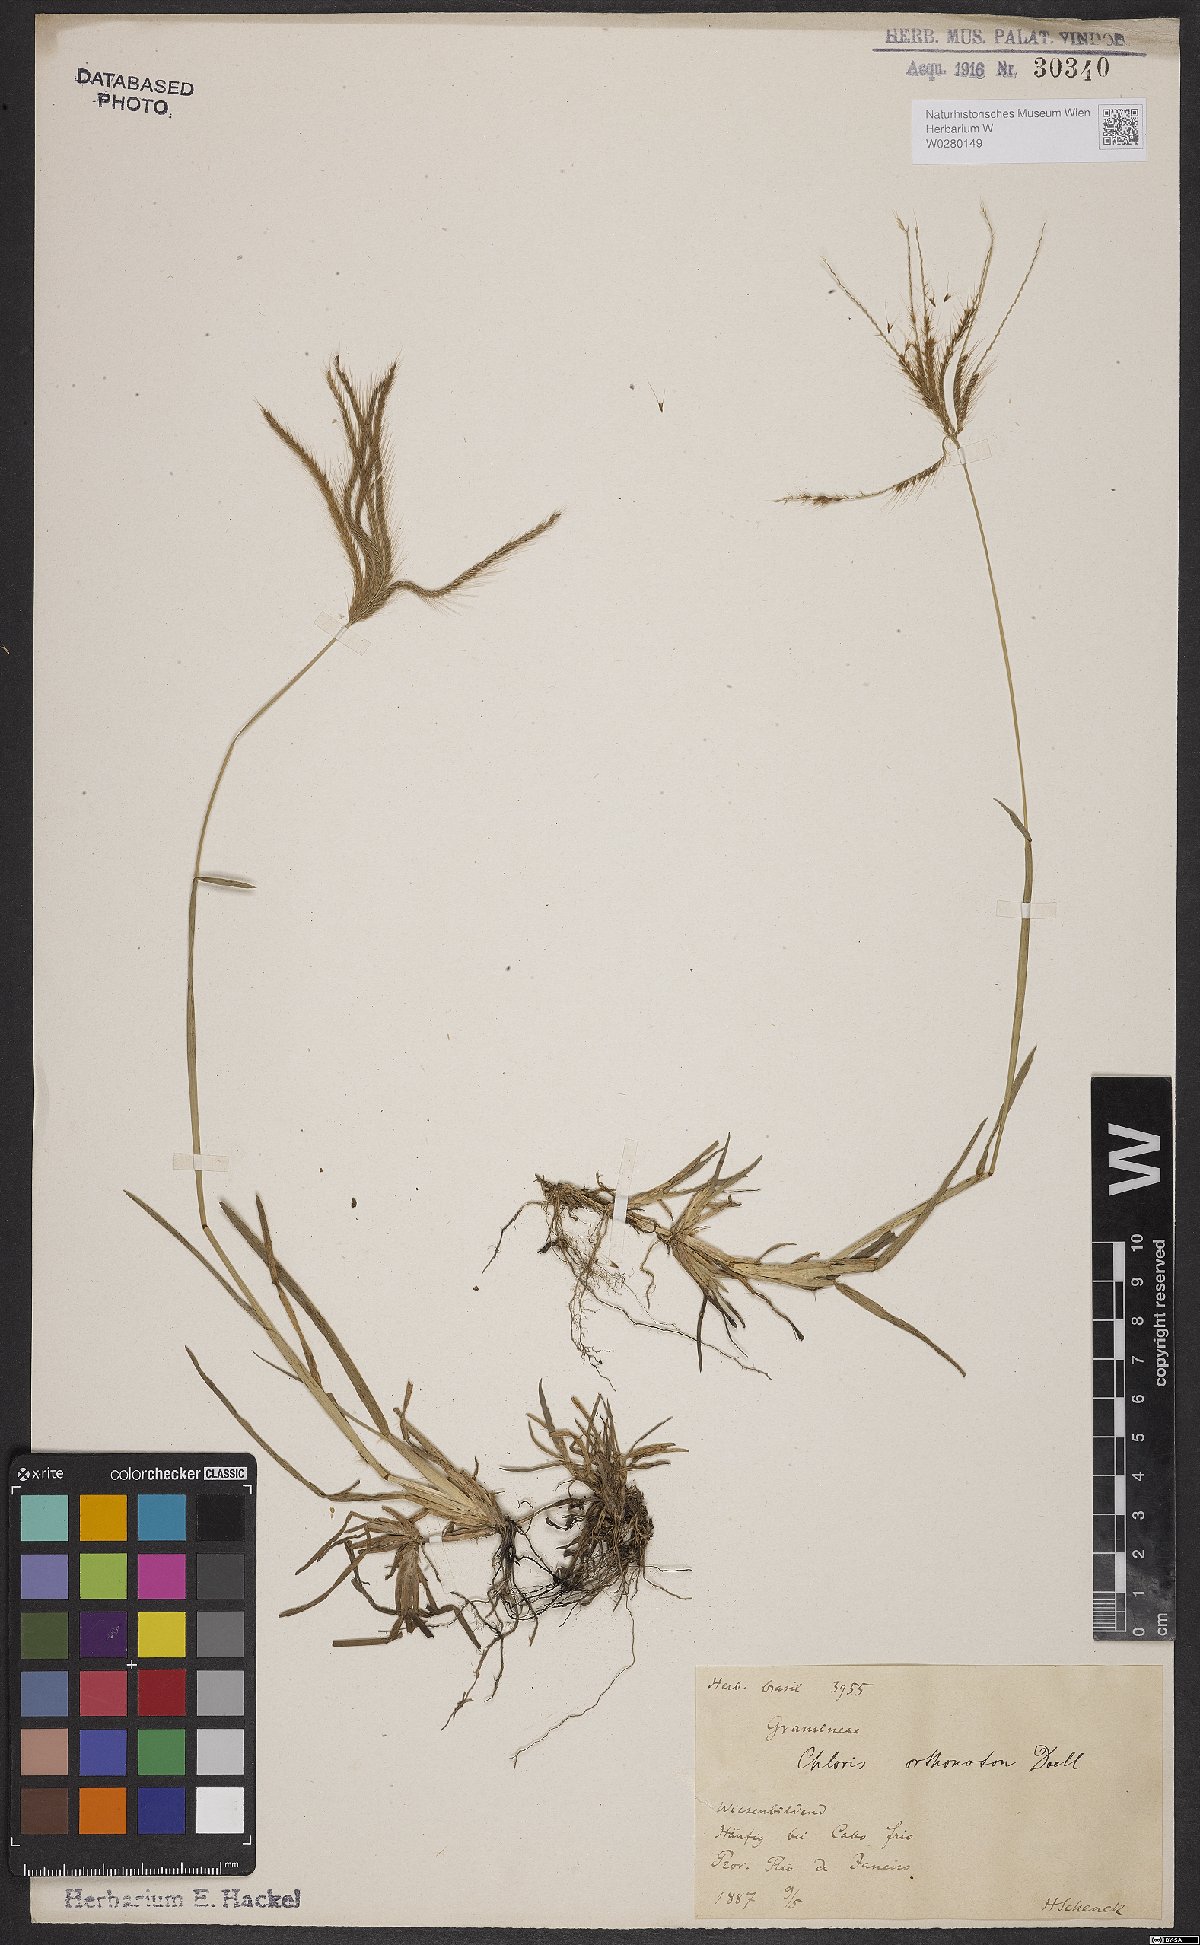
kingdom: Plantae
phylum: Tracheophyta
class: Liliopsida
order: Poales
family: Poaceae
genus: Chloris
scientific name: Chloris orthonoton
